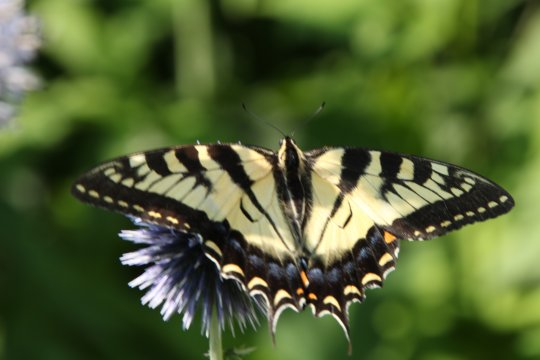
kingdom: Animalia
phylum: Arthropoda
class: Insecta
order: Lepidoptera
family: Papilionidae
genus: Pterourus
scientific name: Pterourus
